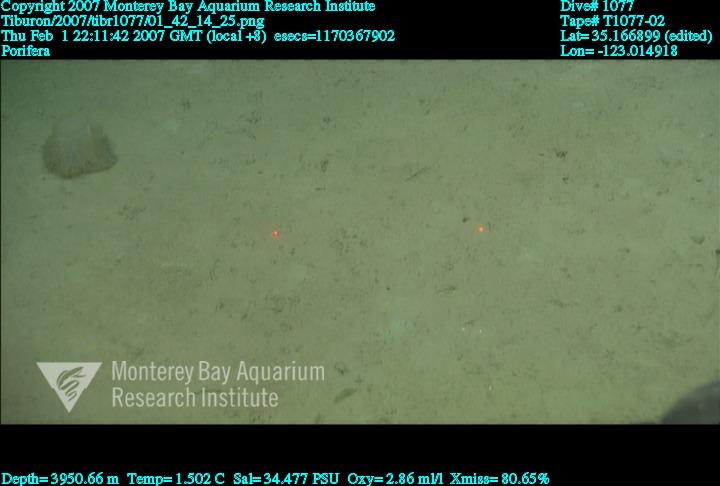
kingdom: Animalia
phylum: Porifera
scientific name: Porifera
